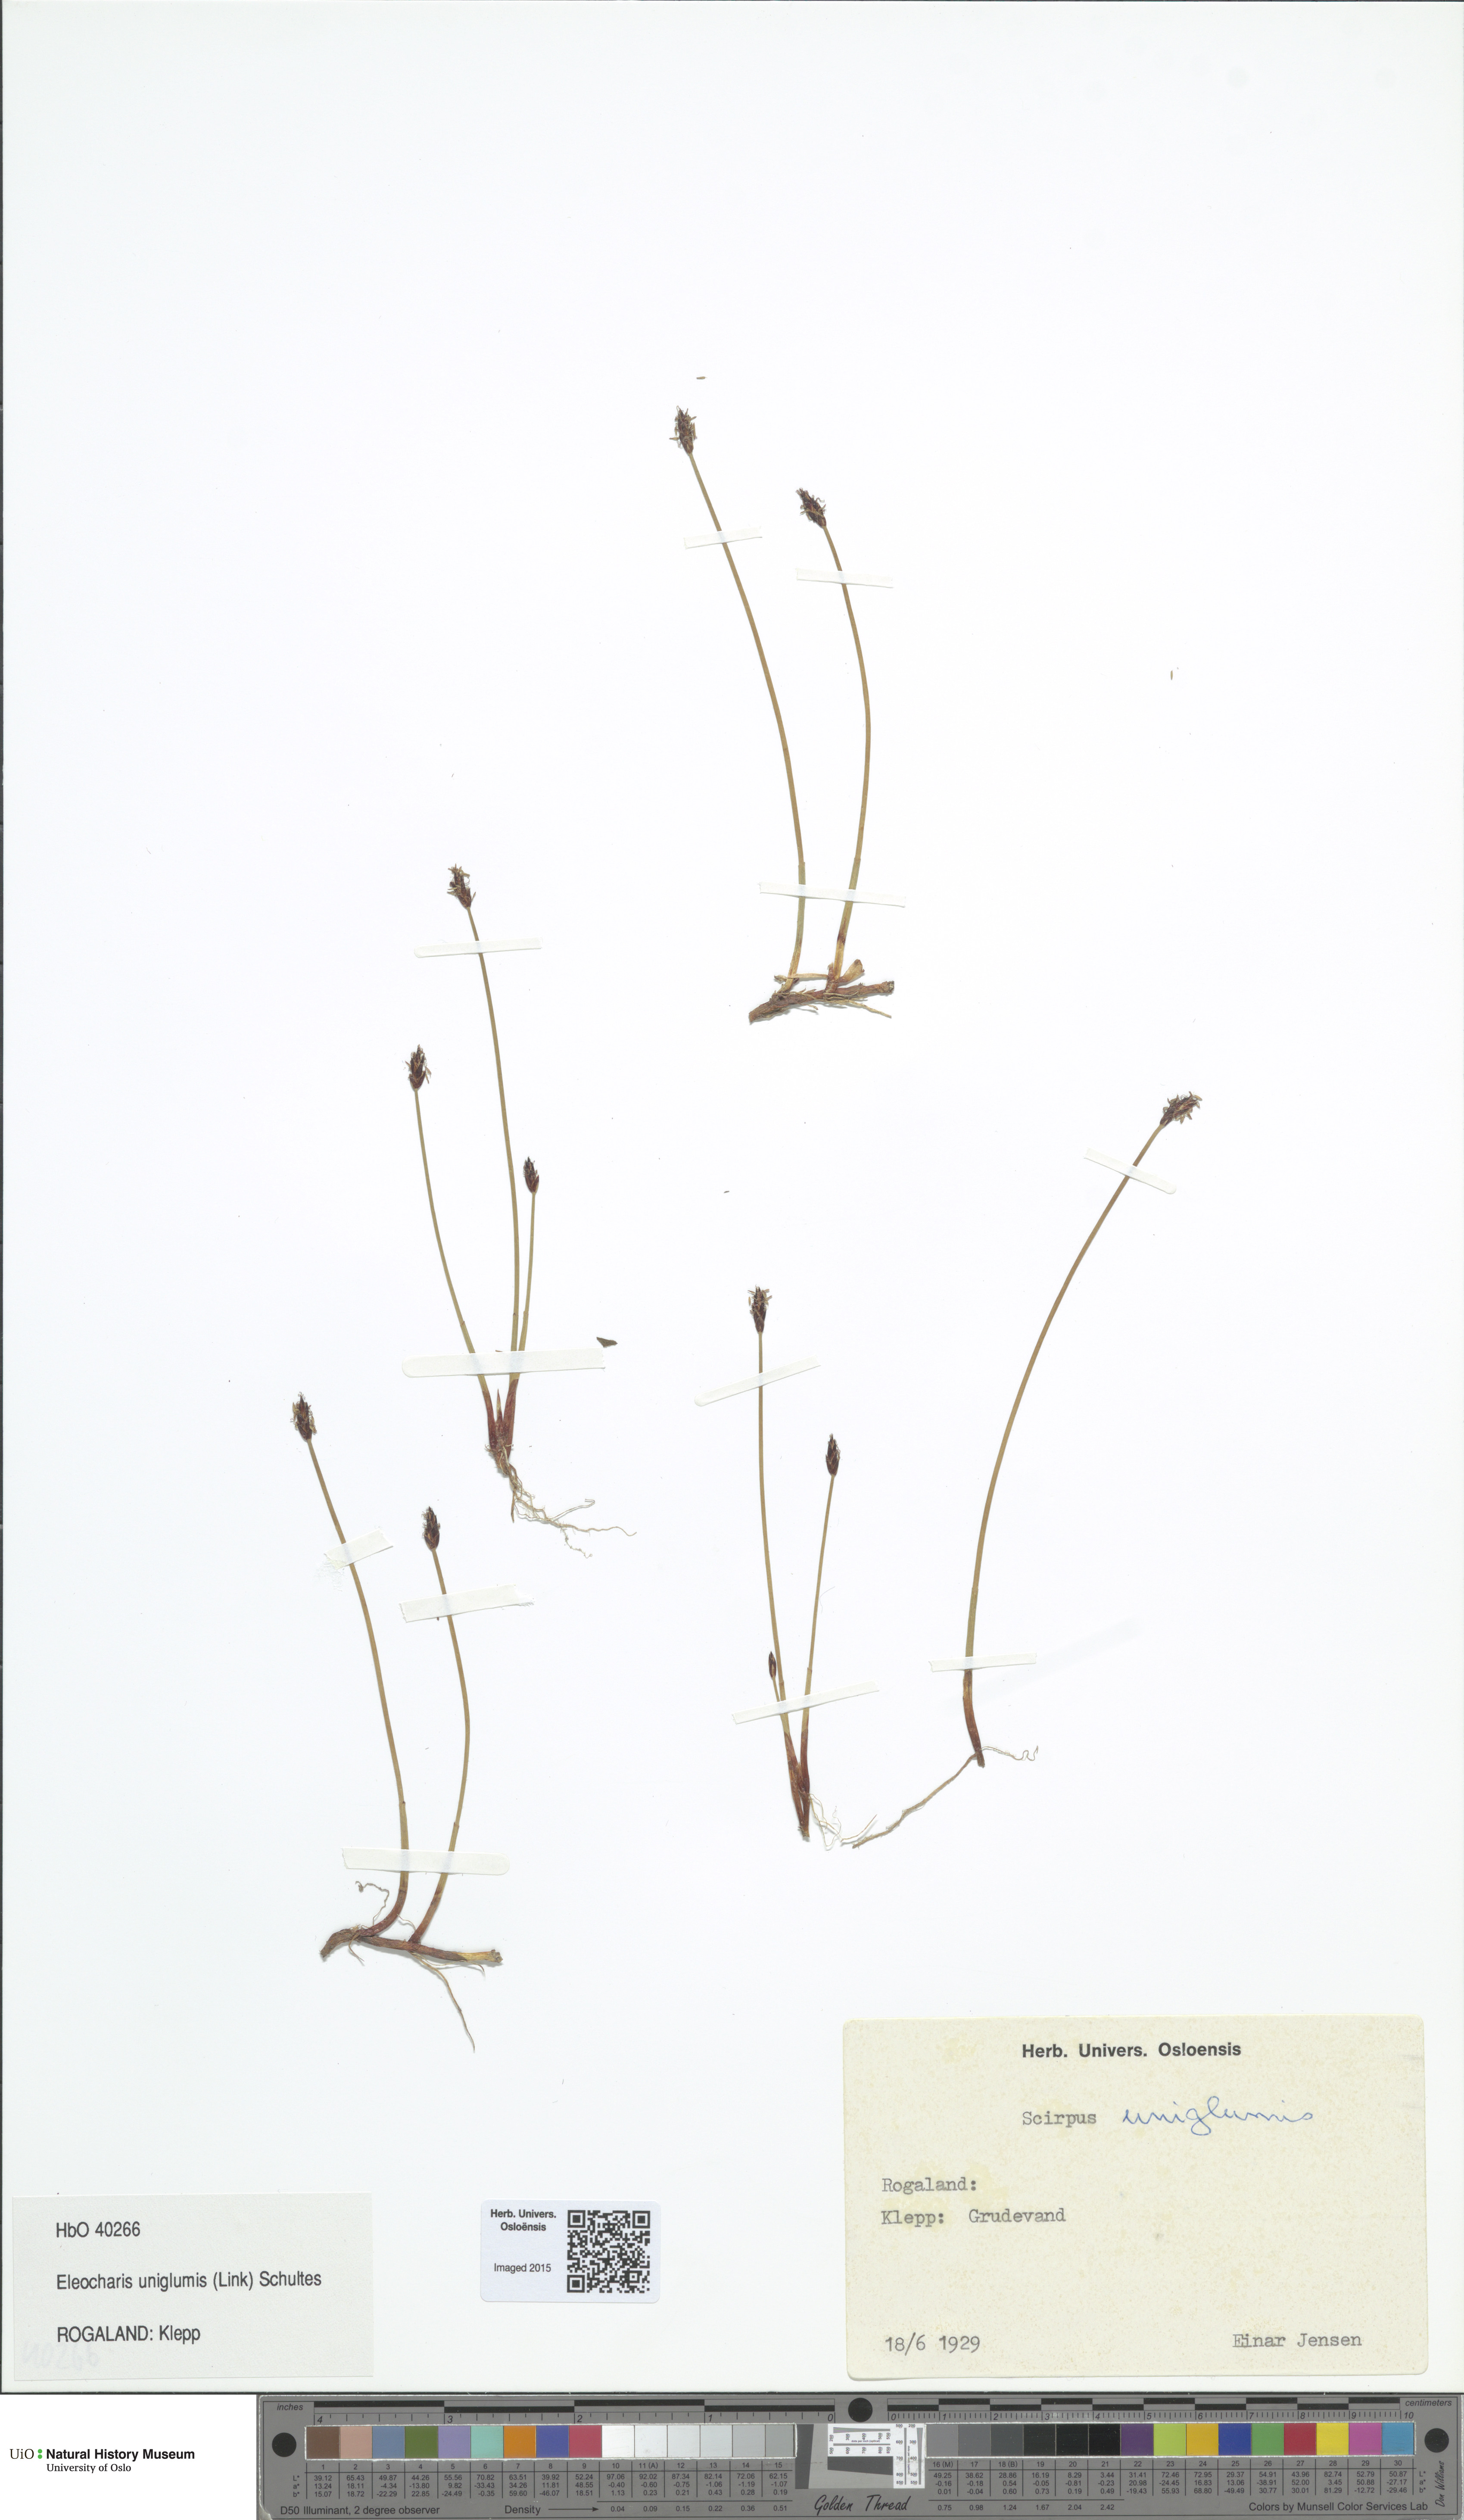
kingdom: Plantae
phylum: Tracheophyta
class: Liliopsida
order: Poales
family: Cyperaceae
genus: Eleocharis
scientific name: Eleocharis uniglumis
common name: Slender spike-rush
